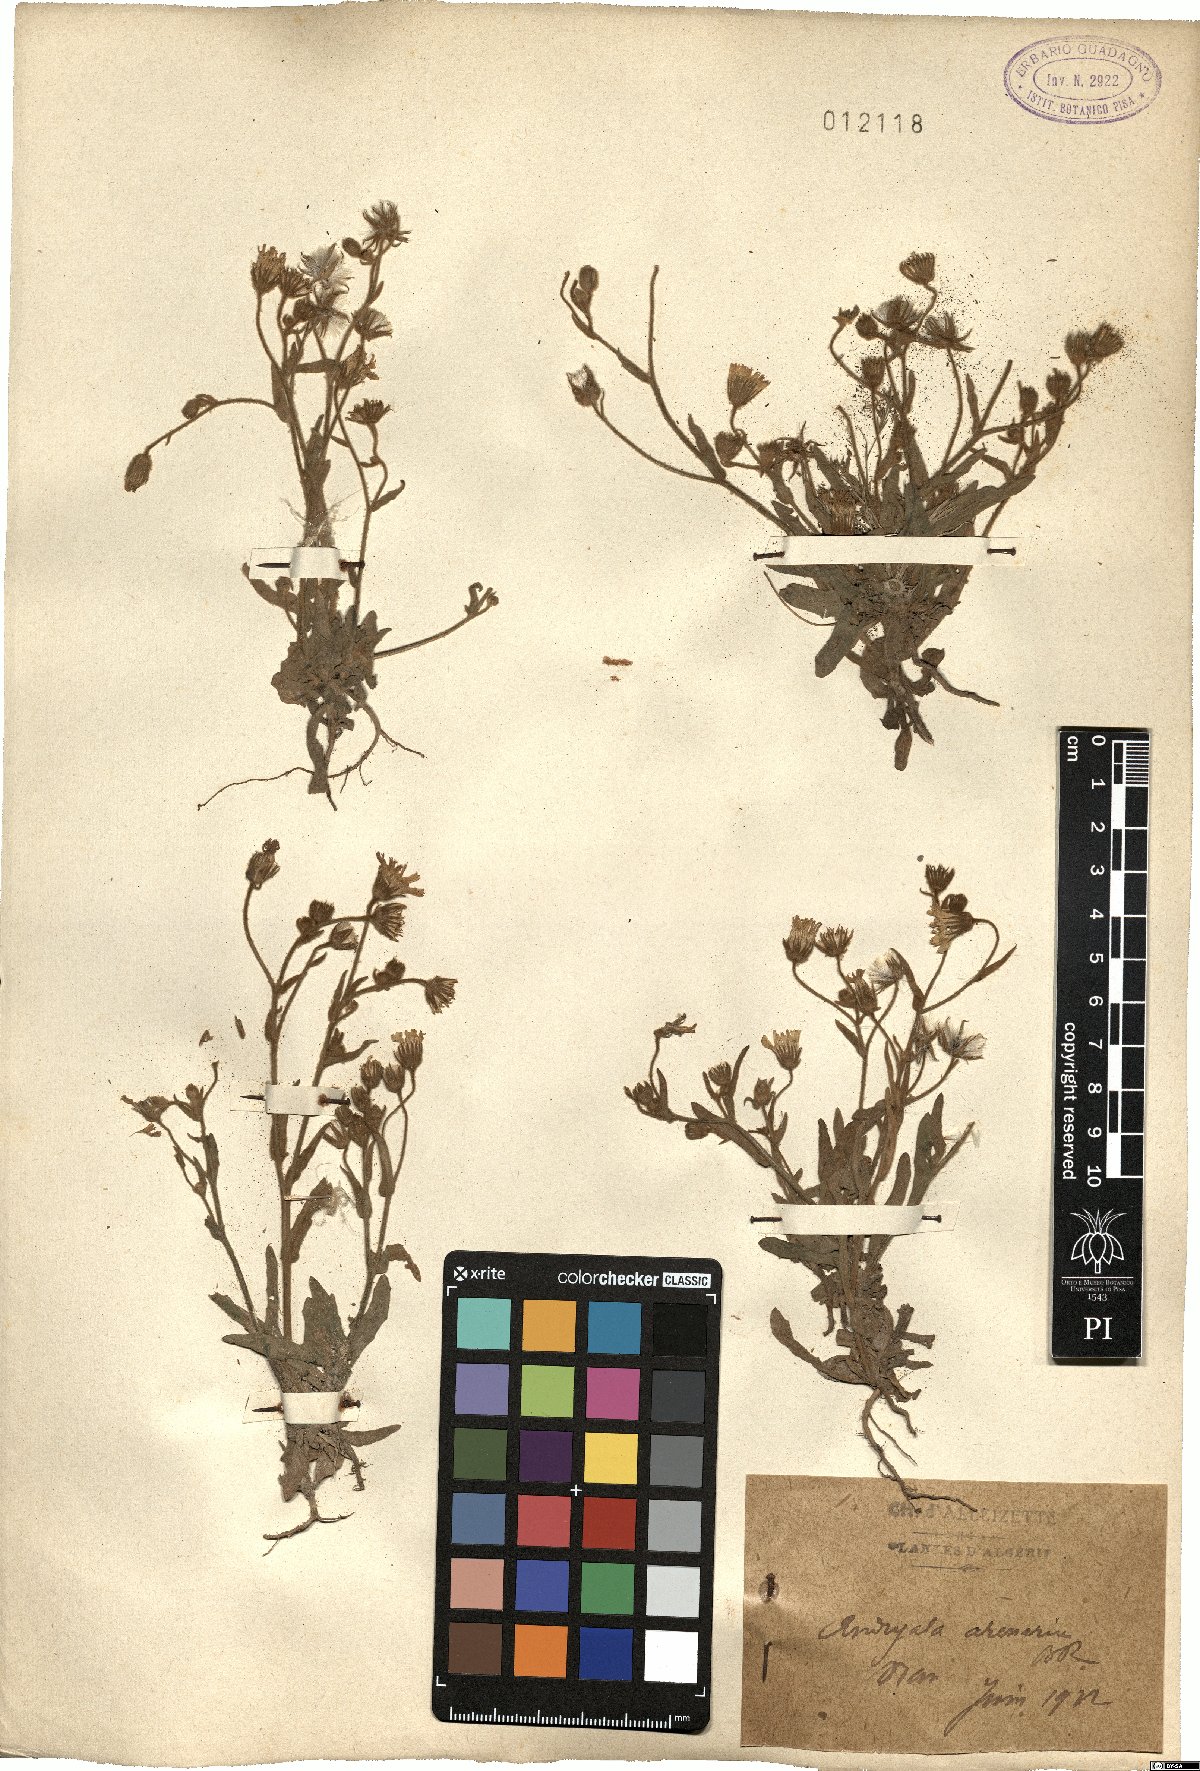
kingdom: Plantae
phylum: Tracheophyta
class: Magnoliopsida
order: Asterales
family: Asteraceae
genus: Andryala
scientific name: Andryala arenaria
